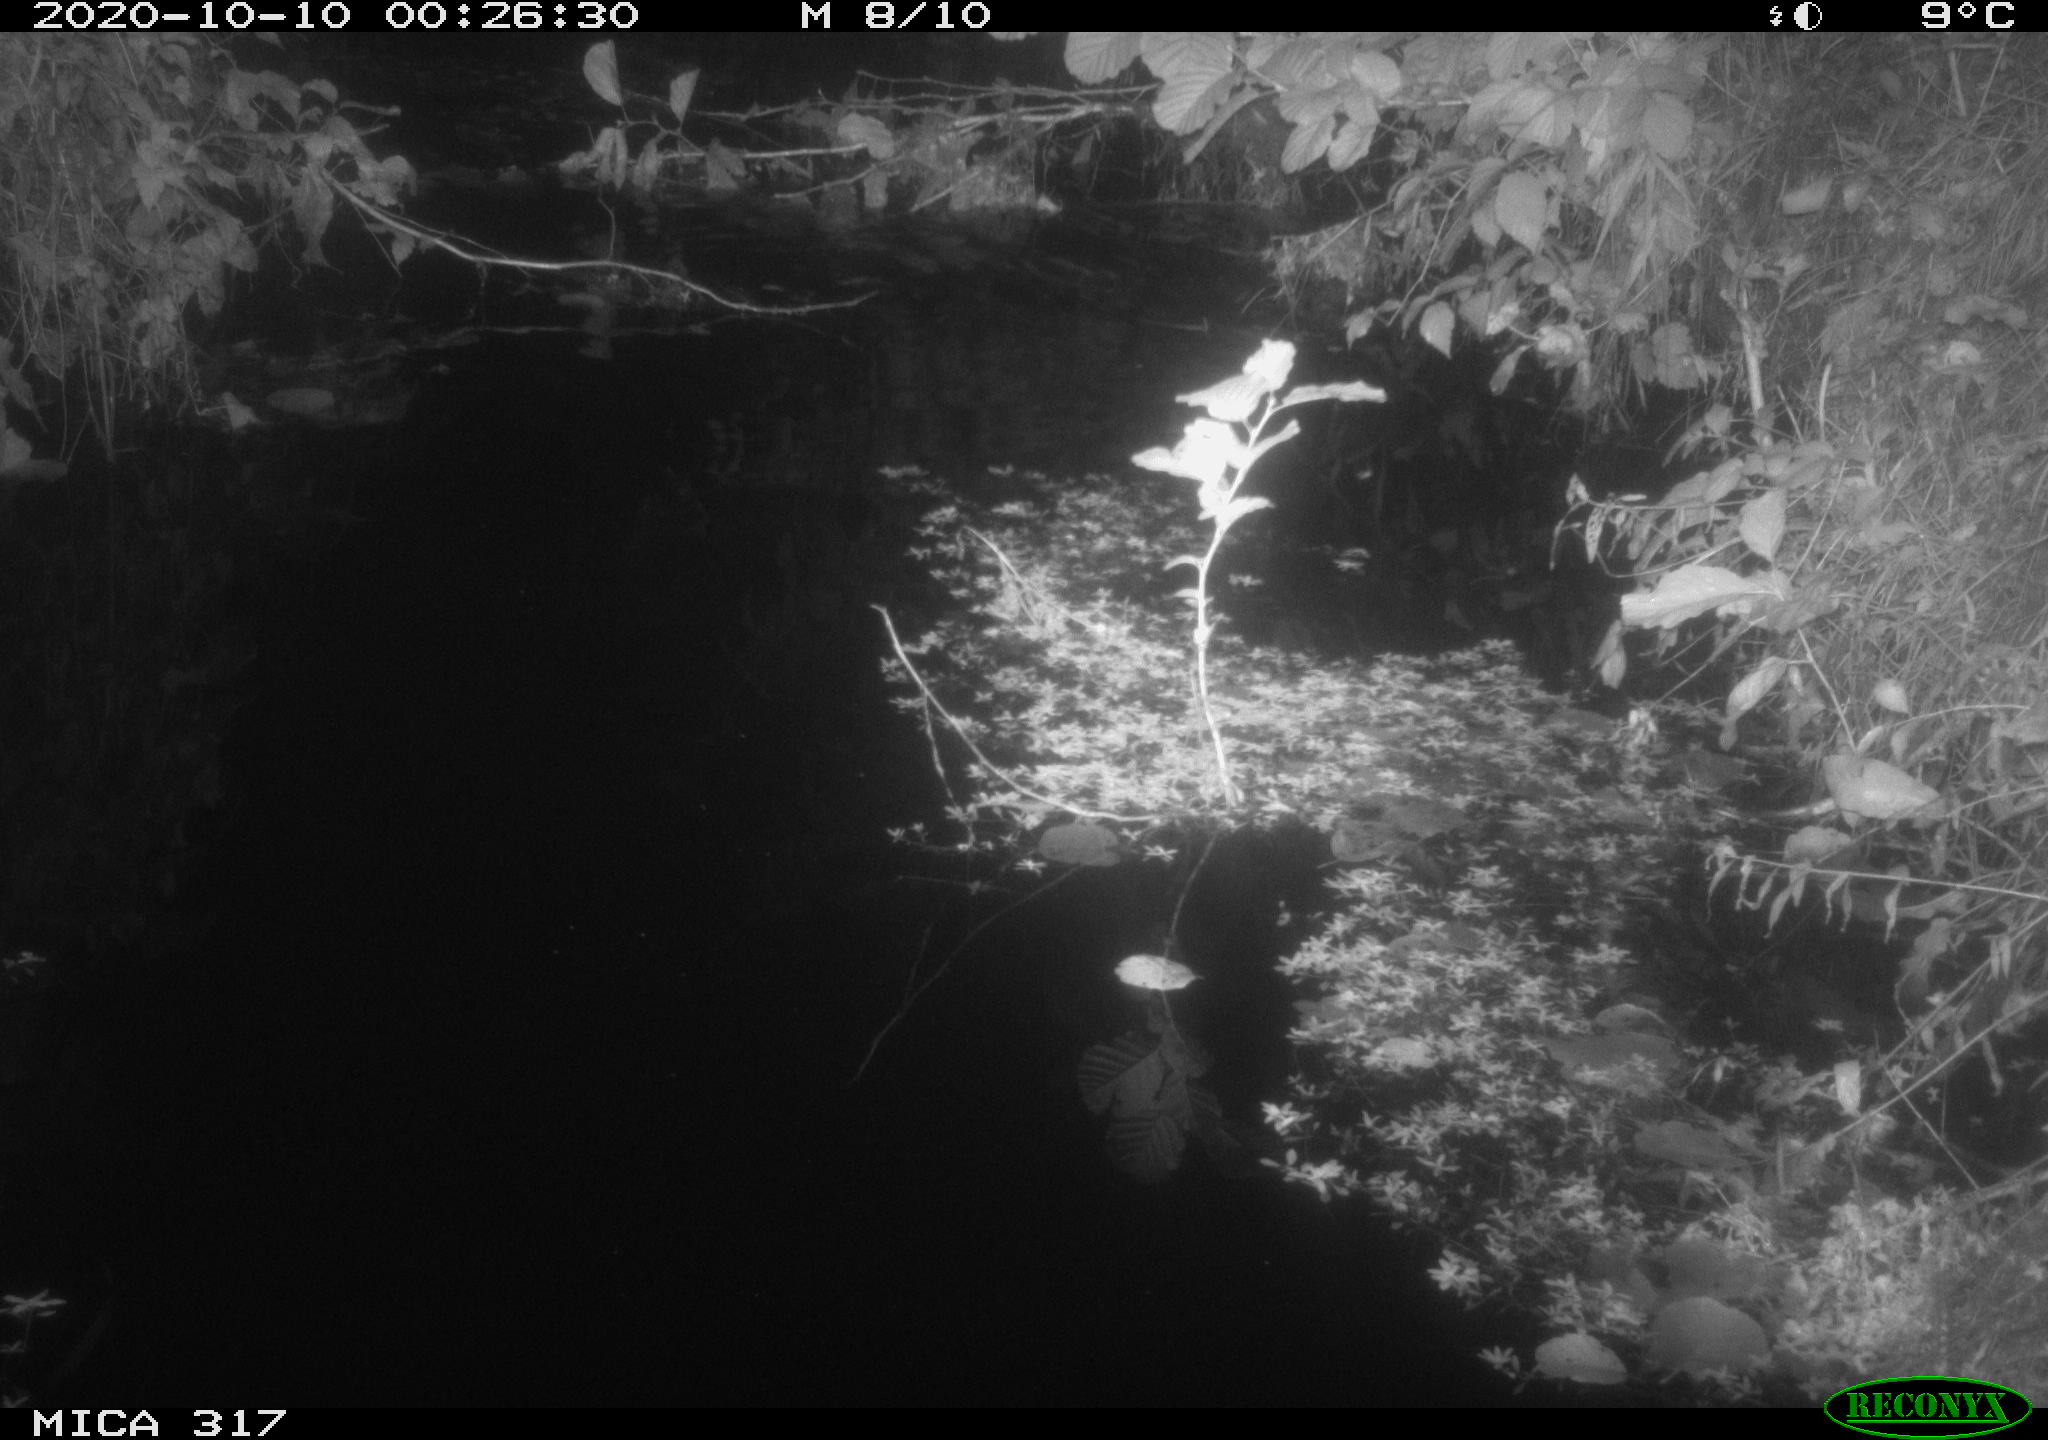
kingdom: Animalia
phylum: Chordata
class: Mammalia
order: Rodentia
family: Muridae
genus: Rattus
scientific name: Rattus norvegicus
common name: Brown rat
